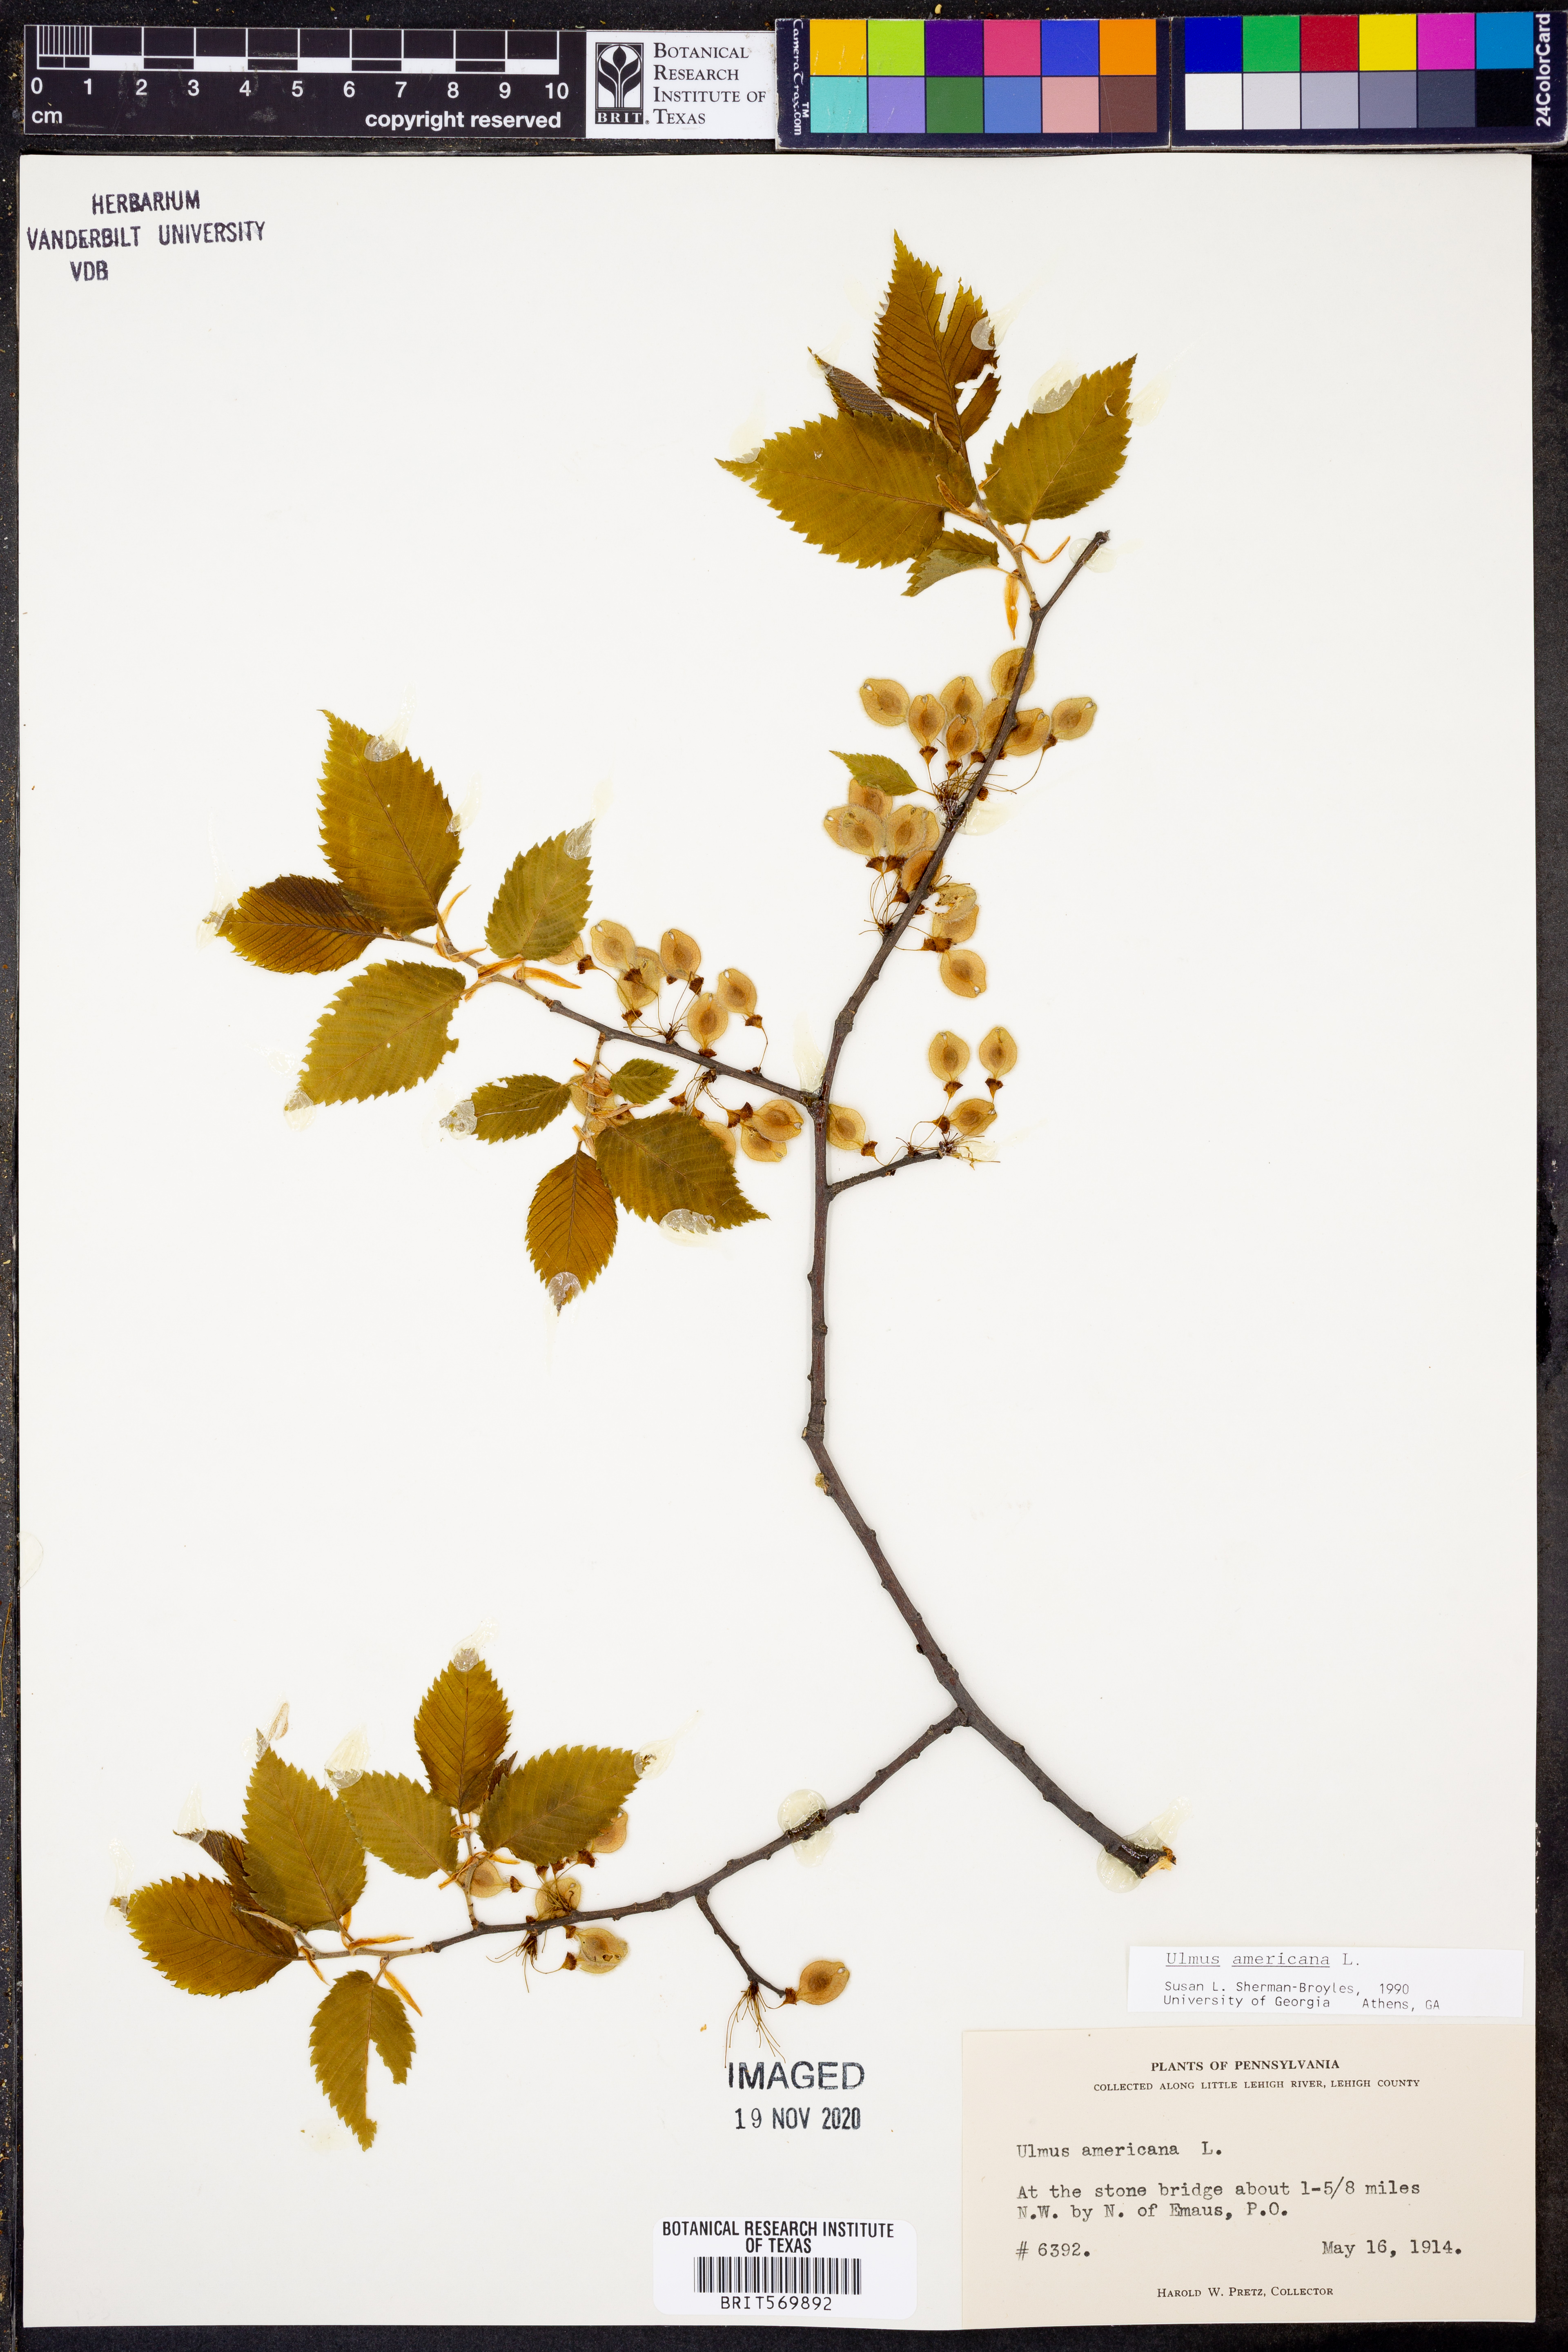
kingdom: Plantae
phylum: Tracheophyta
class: Magnoliopsida
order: Rosales
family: Ulmaceae
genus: Ulmus
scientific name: Ulmus americana
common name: American elm
